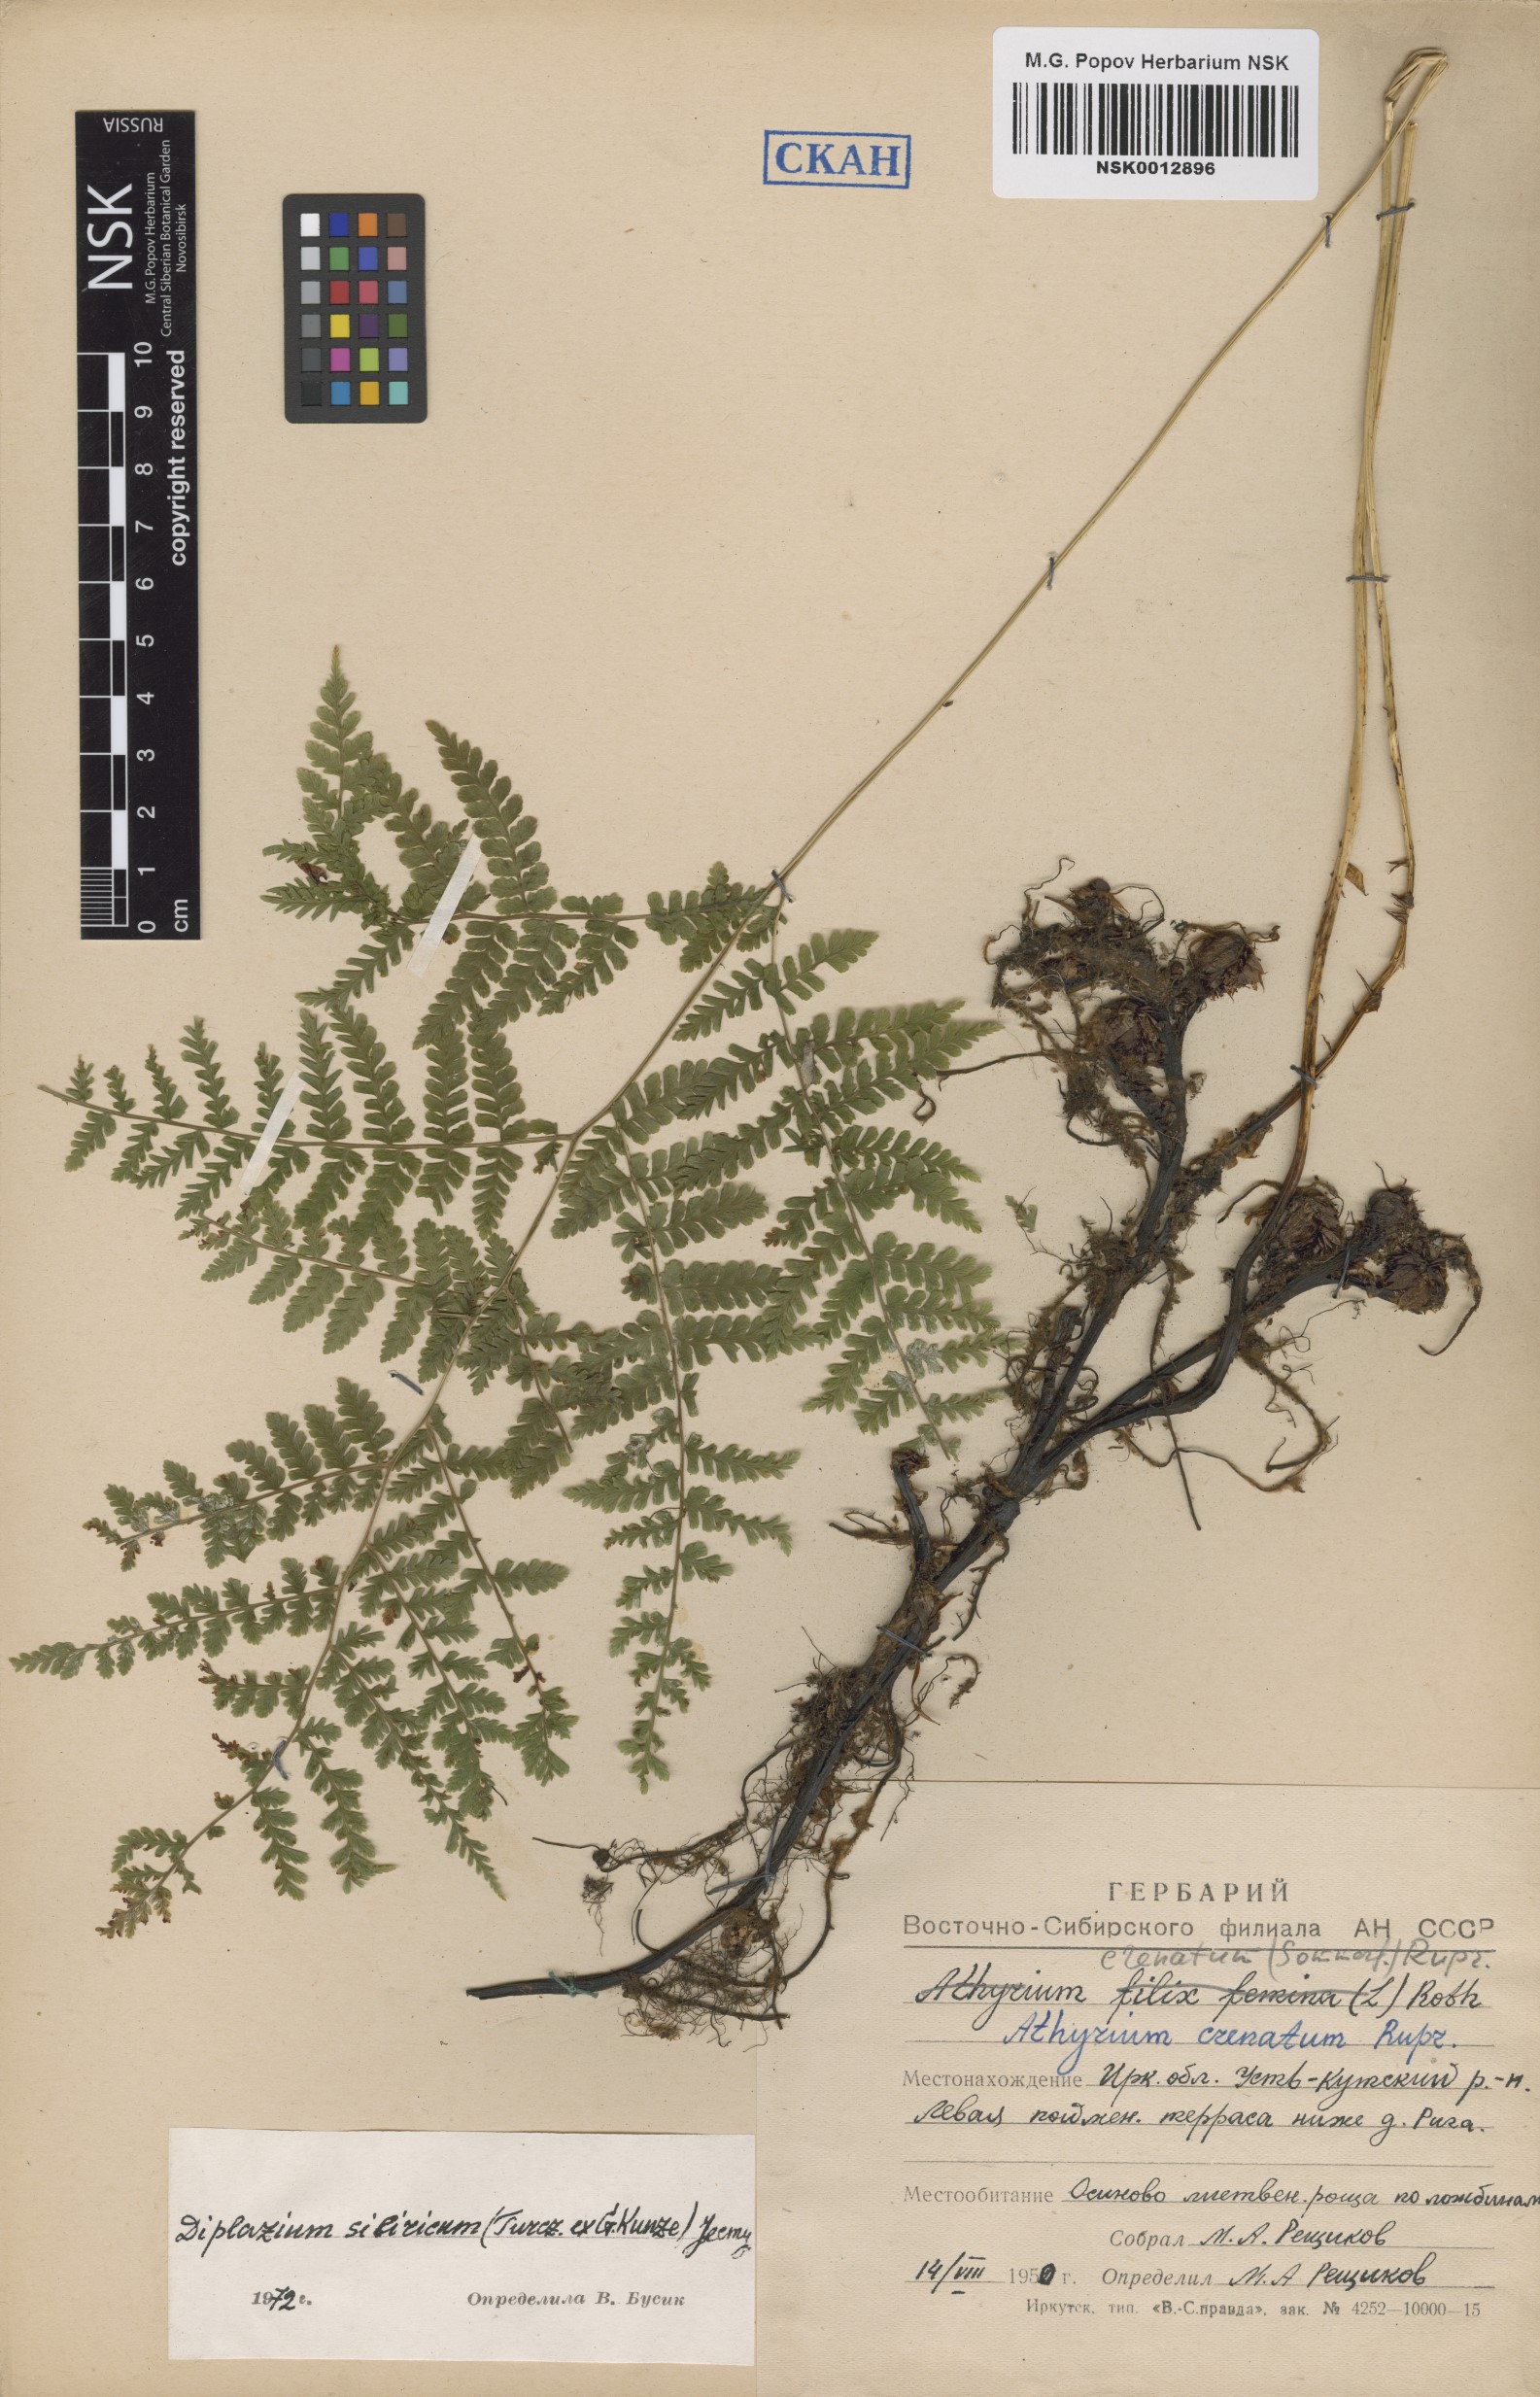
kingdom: Plantae
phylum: Tracheophyta
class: Polypodiopsida
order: Polypodiales
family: Athyriaceae
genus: Diplazium
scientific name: Diplazium sibiricum
